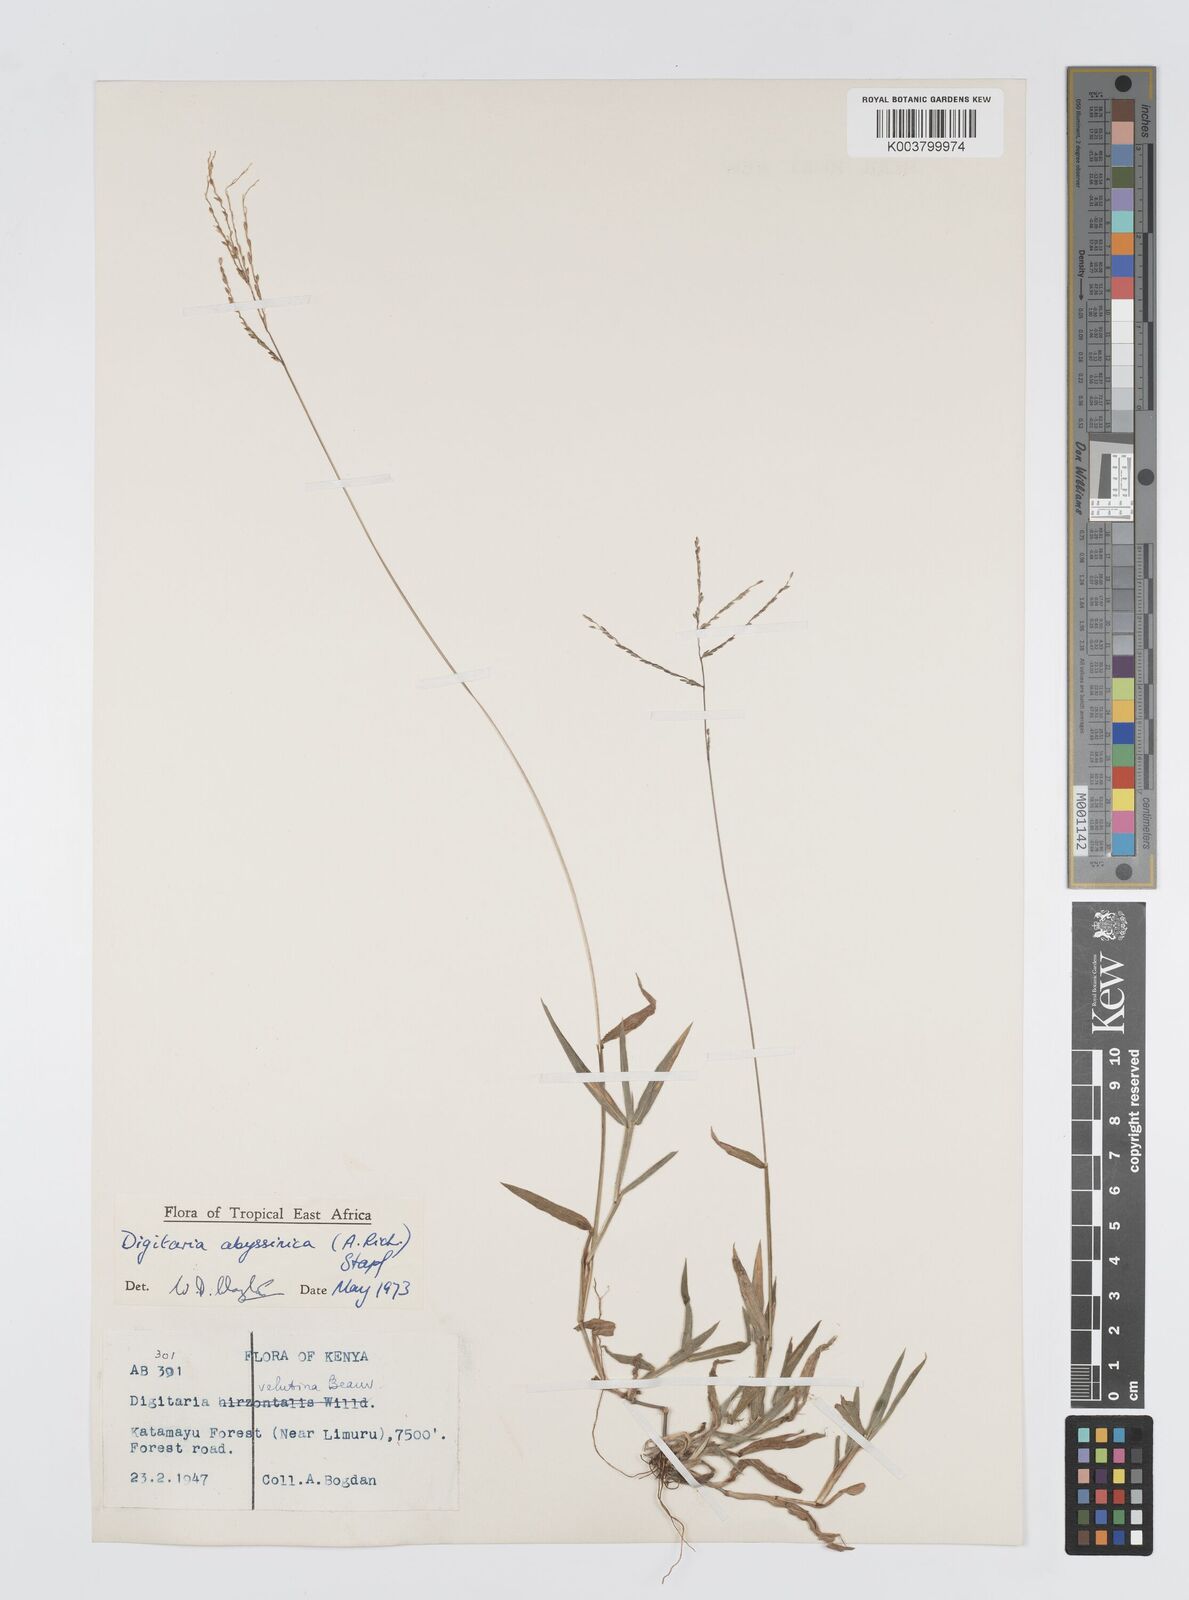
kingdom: Plantae
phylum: Tracheophyta
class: Liliopsida
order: Poales
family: Poaceae
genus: Digitaria
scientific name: Digitaria abyssinica
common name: African couchgrass
